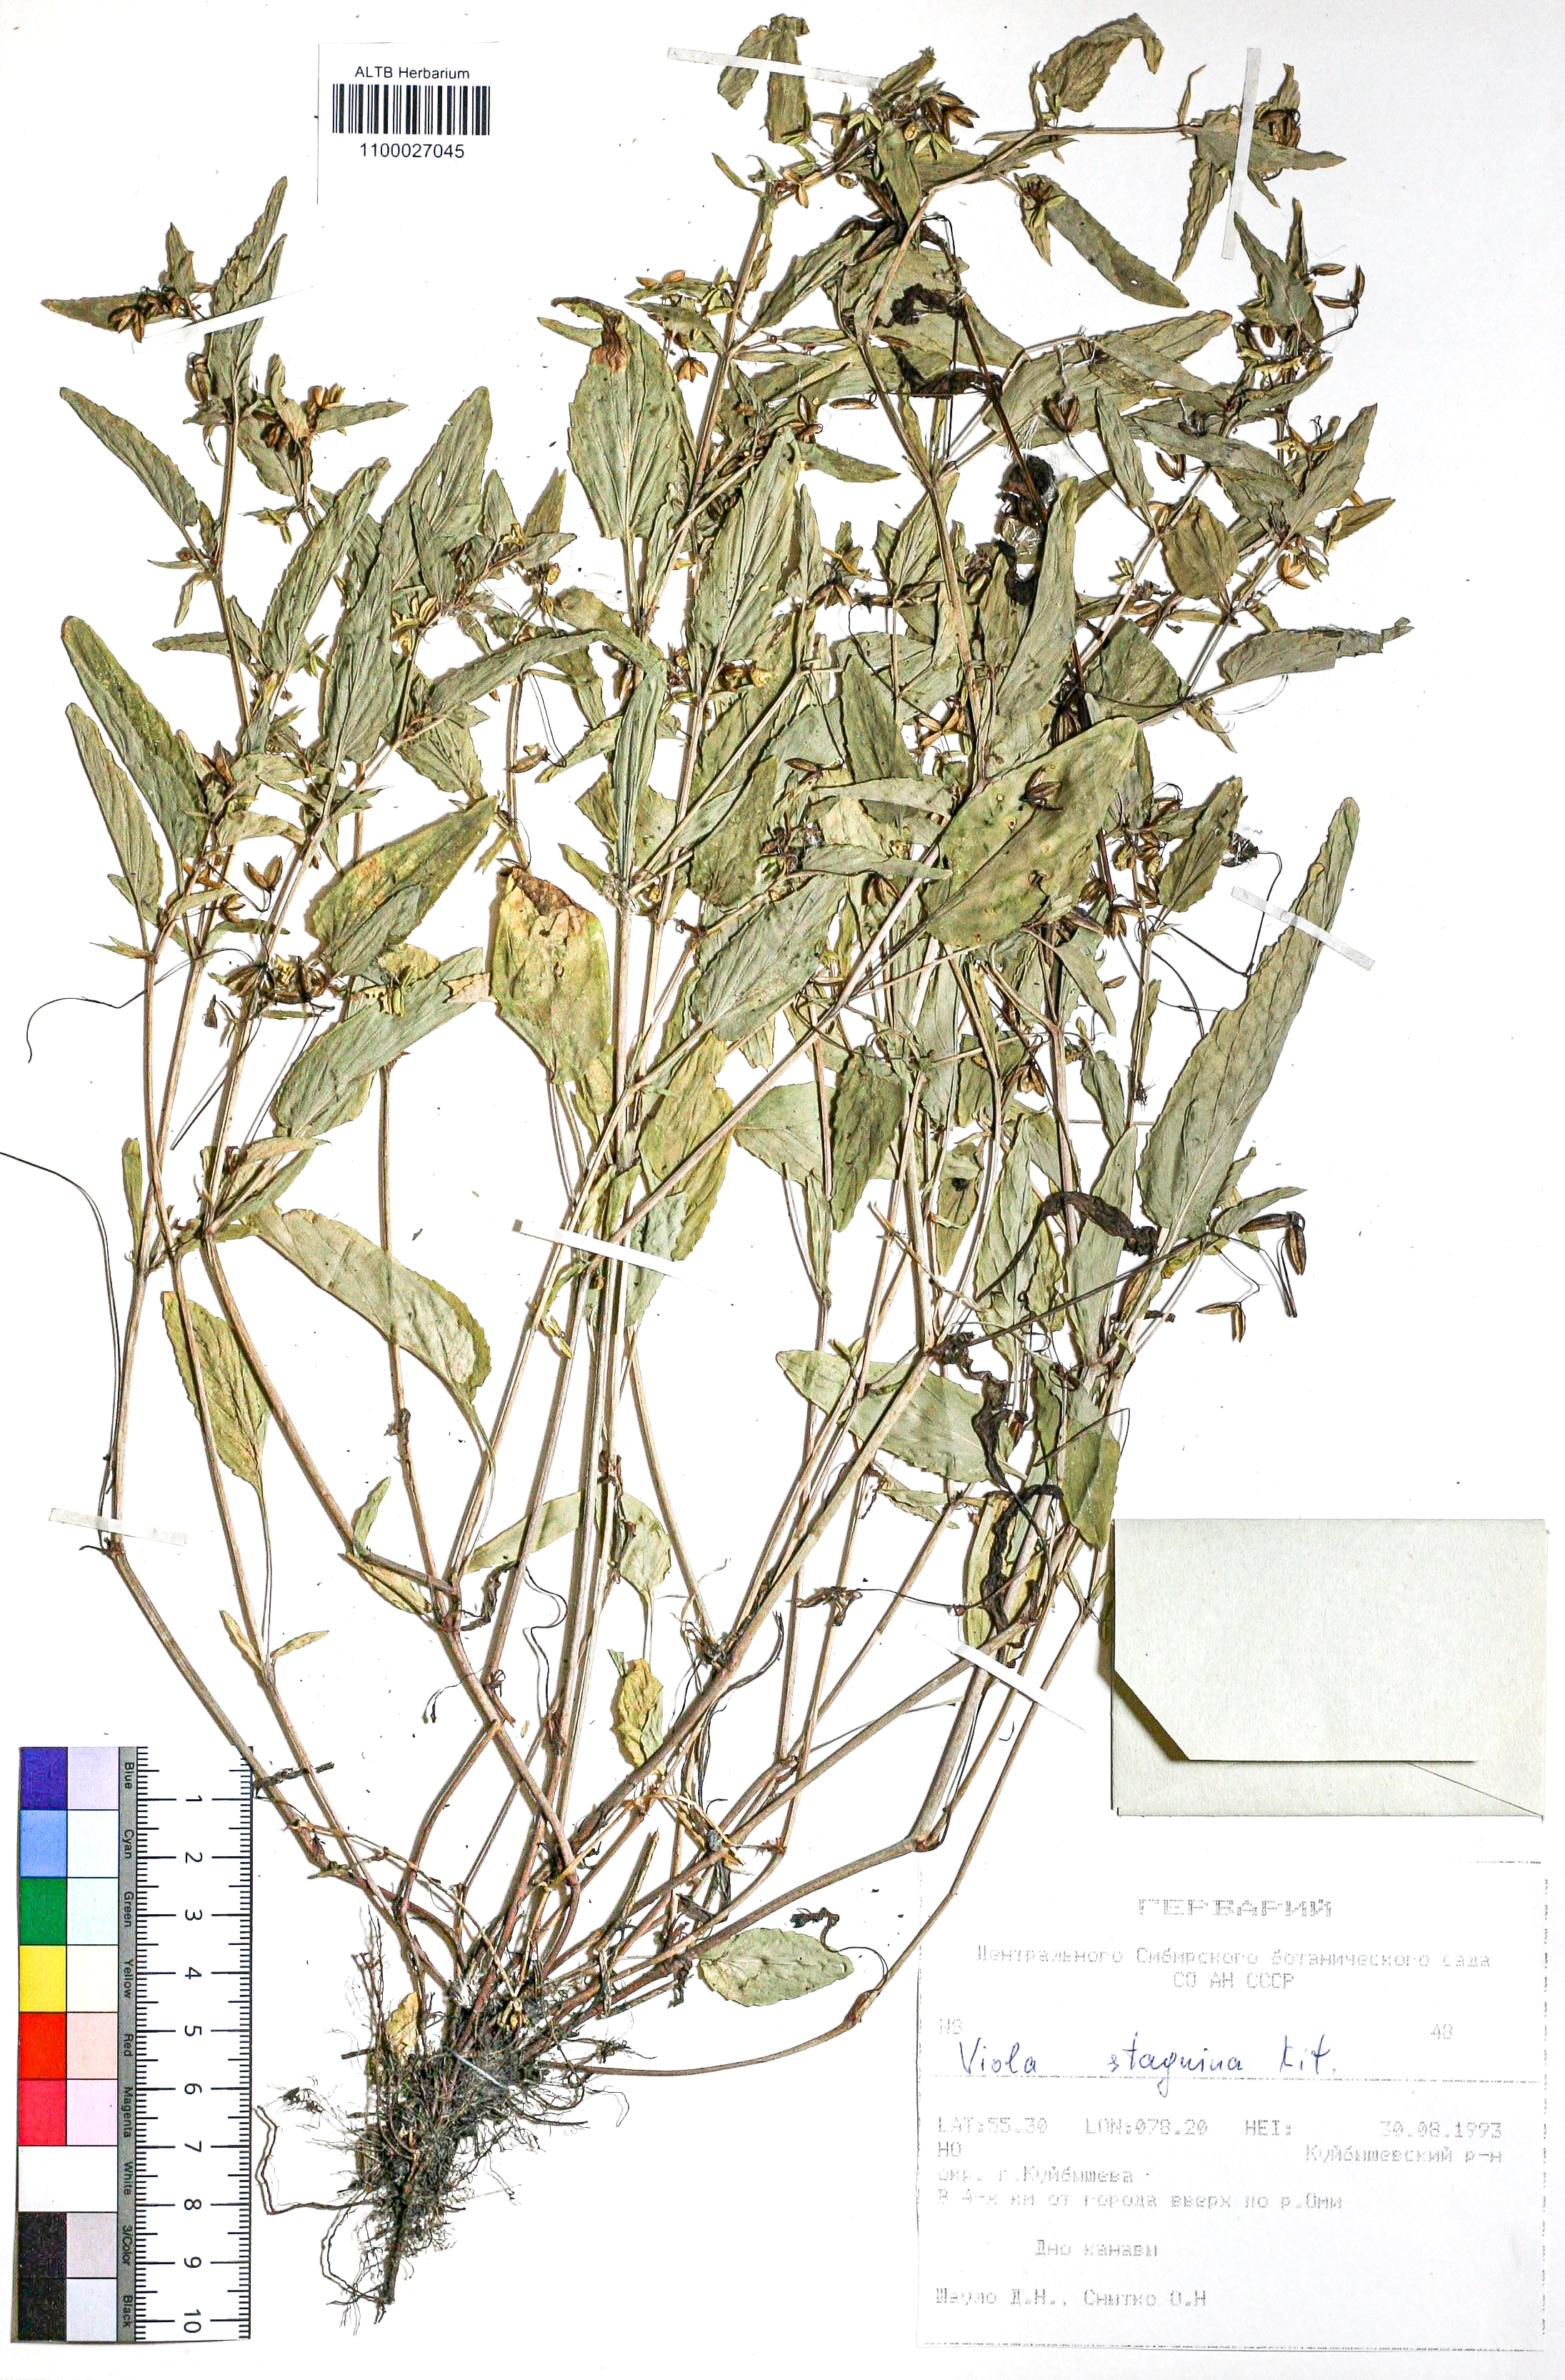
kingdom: Plantae
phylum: Tracheophyta
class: Magnoliopsida
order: Malpighiales
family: Violaceae
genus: Viola
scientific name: Viola stagnina
